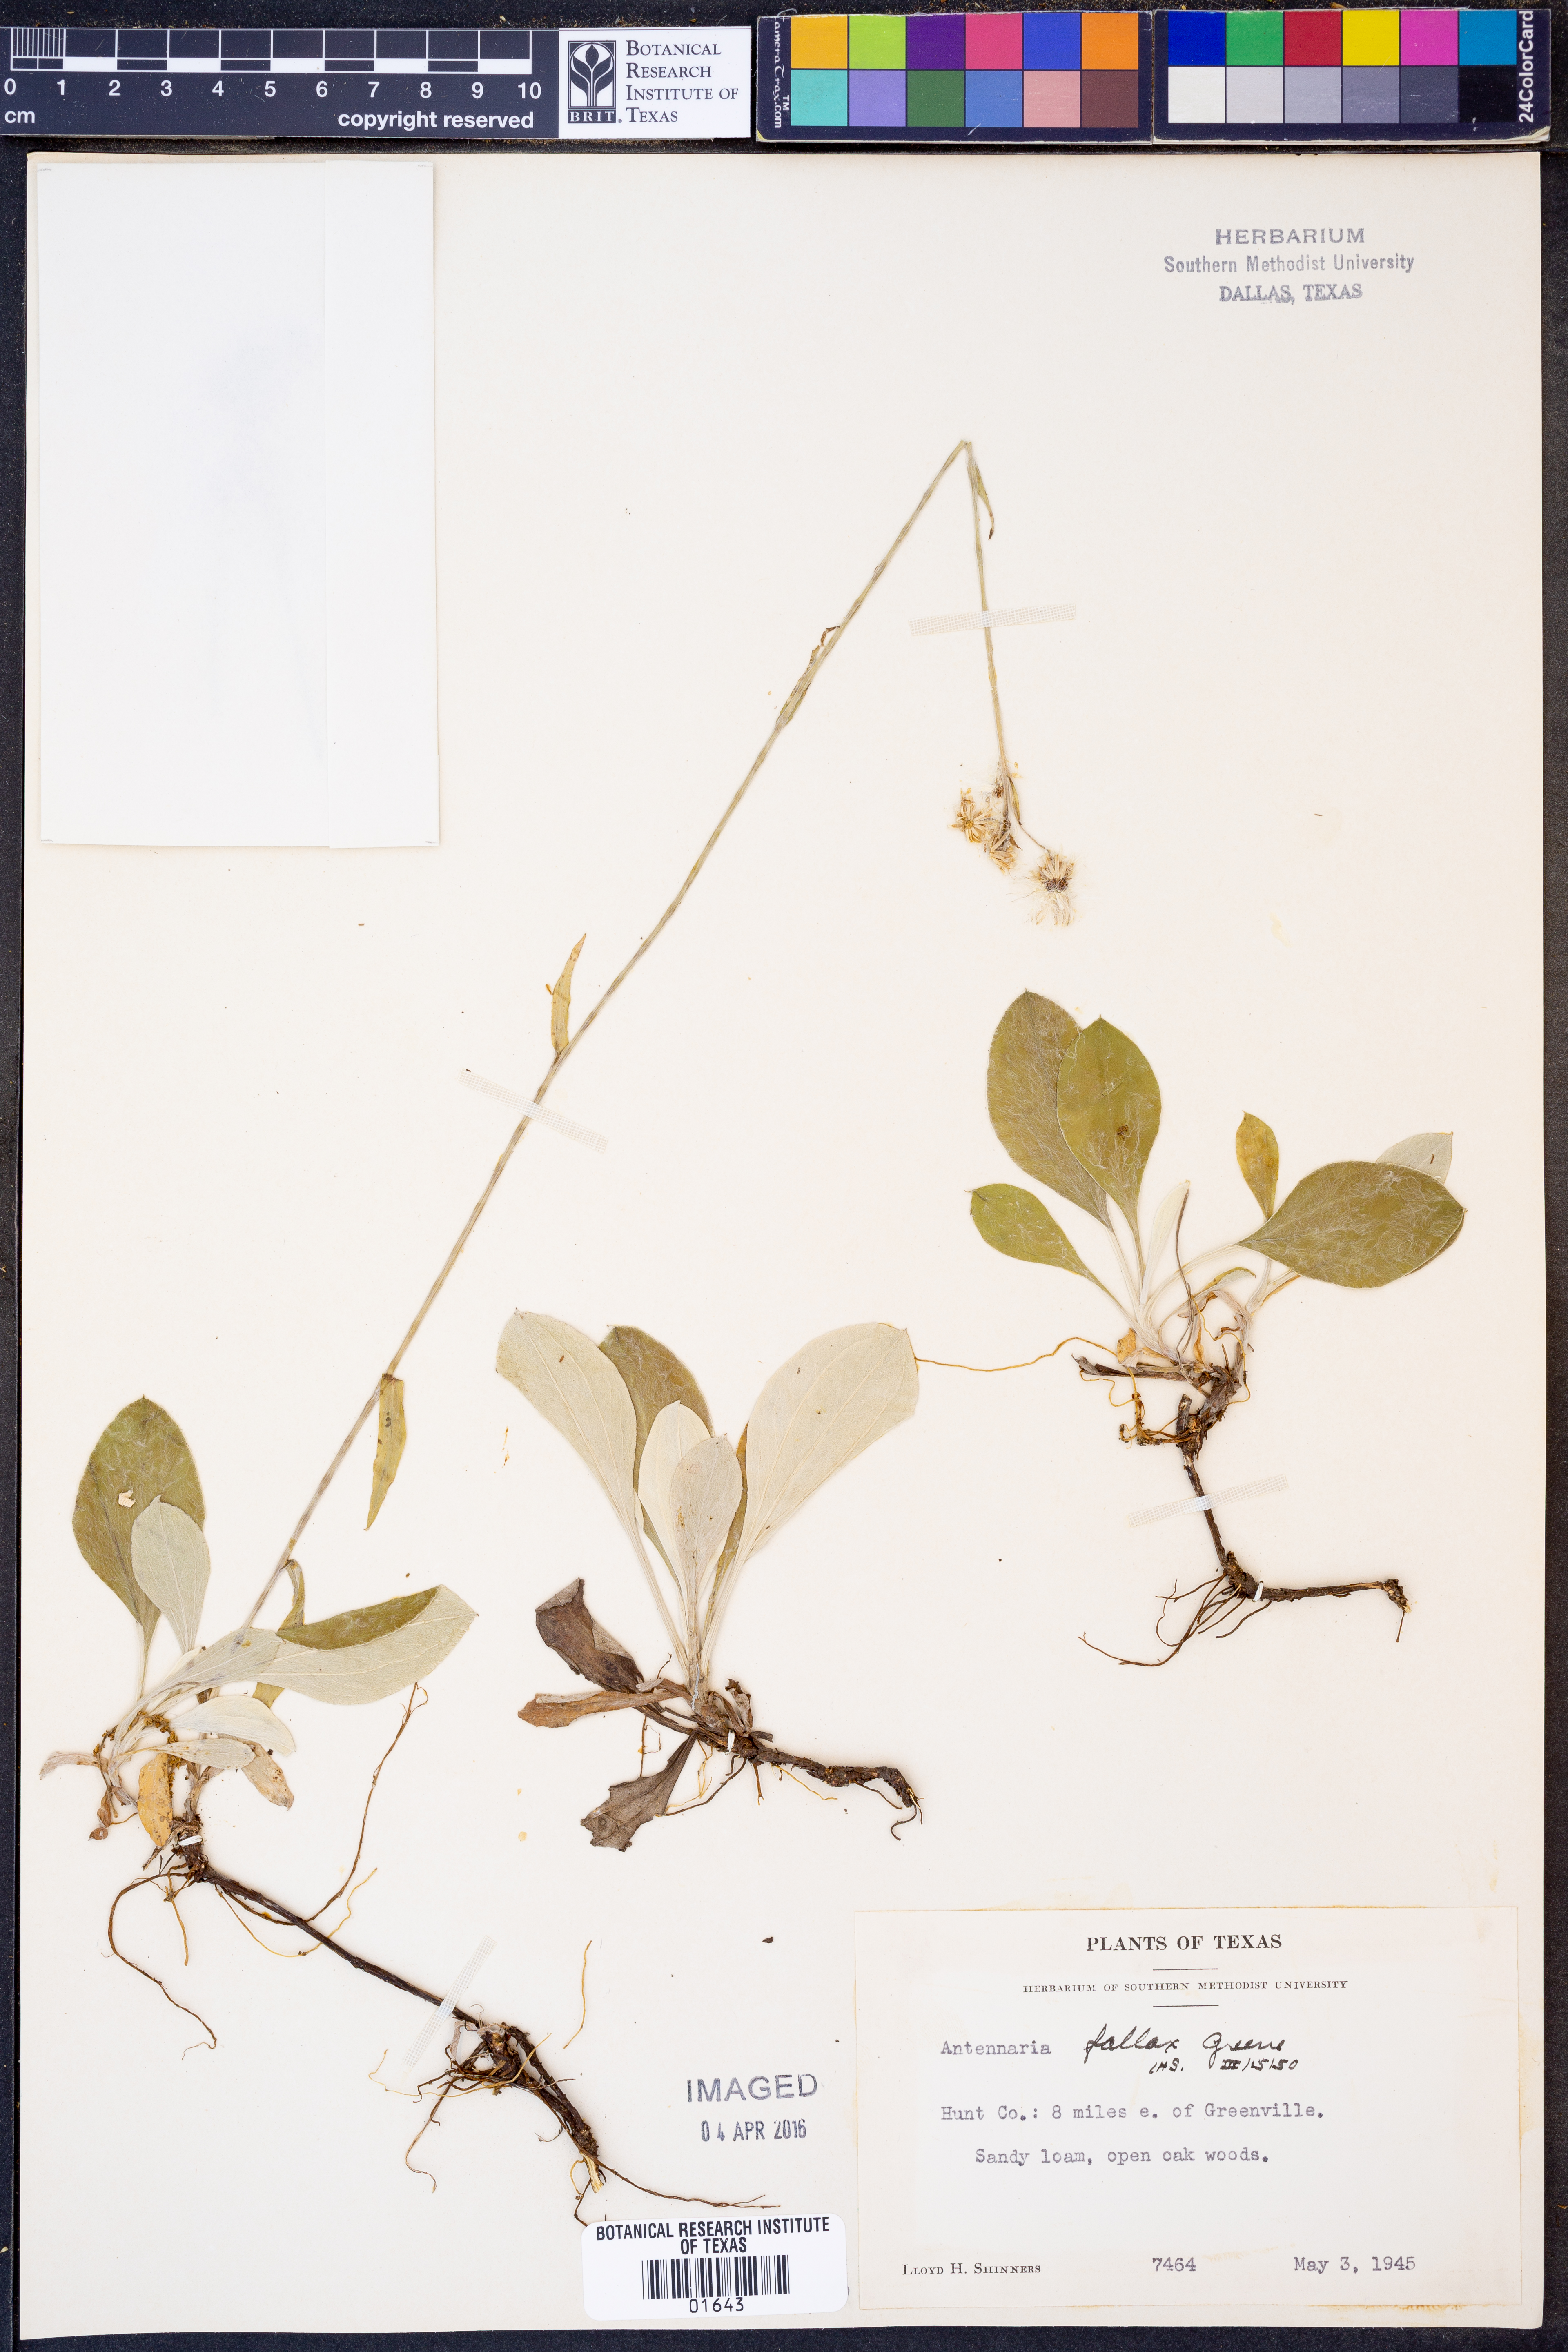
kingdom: Plantae
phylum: Tracheophyta
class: Magnoliopsida
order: Asterales
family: Asteraceae
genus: Antennaria
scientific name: Antennaria parlinii
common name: Parlin's pussytoes
